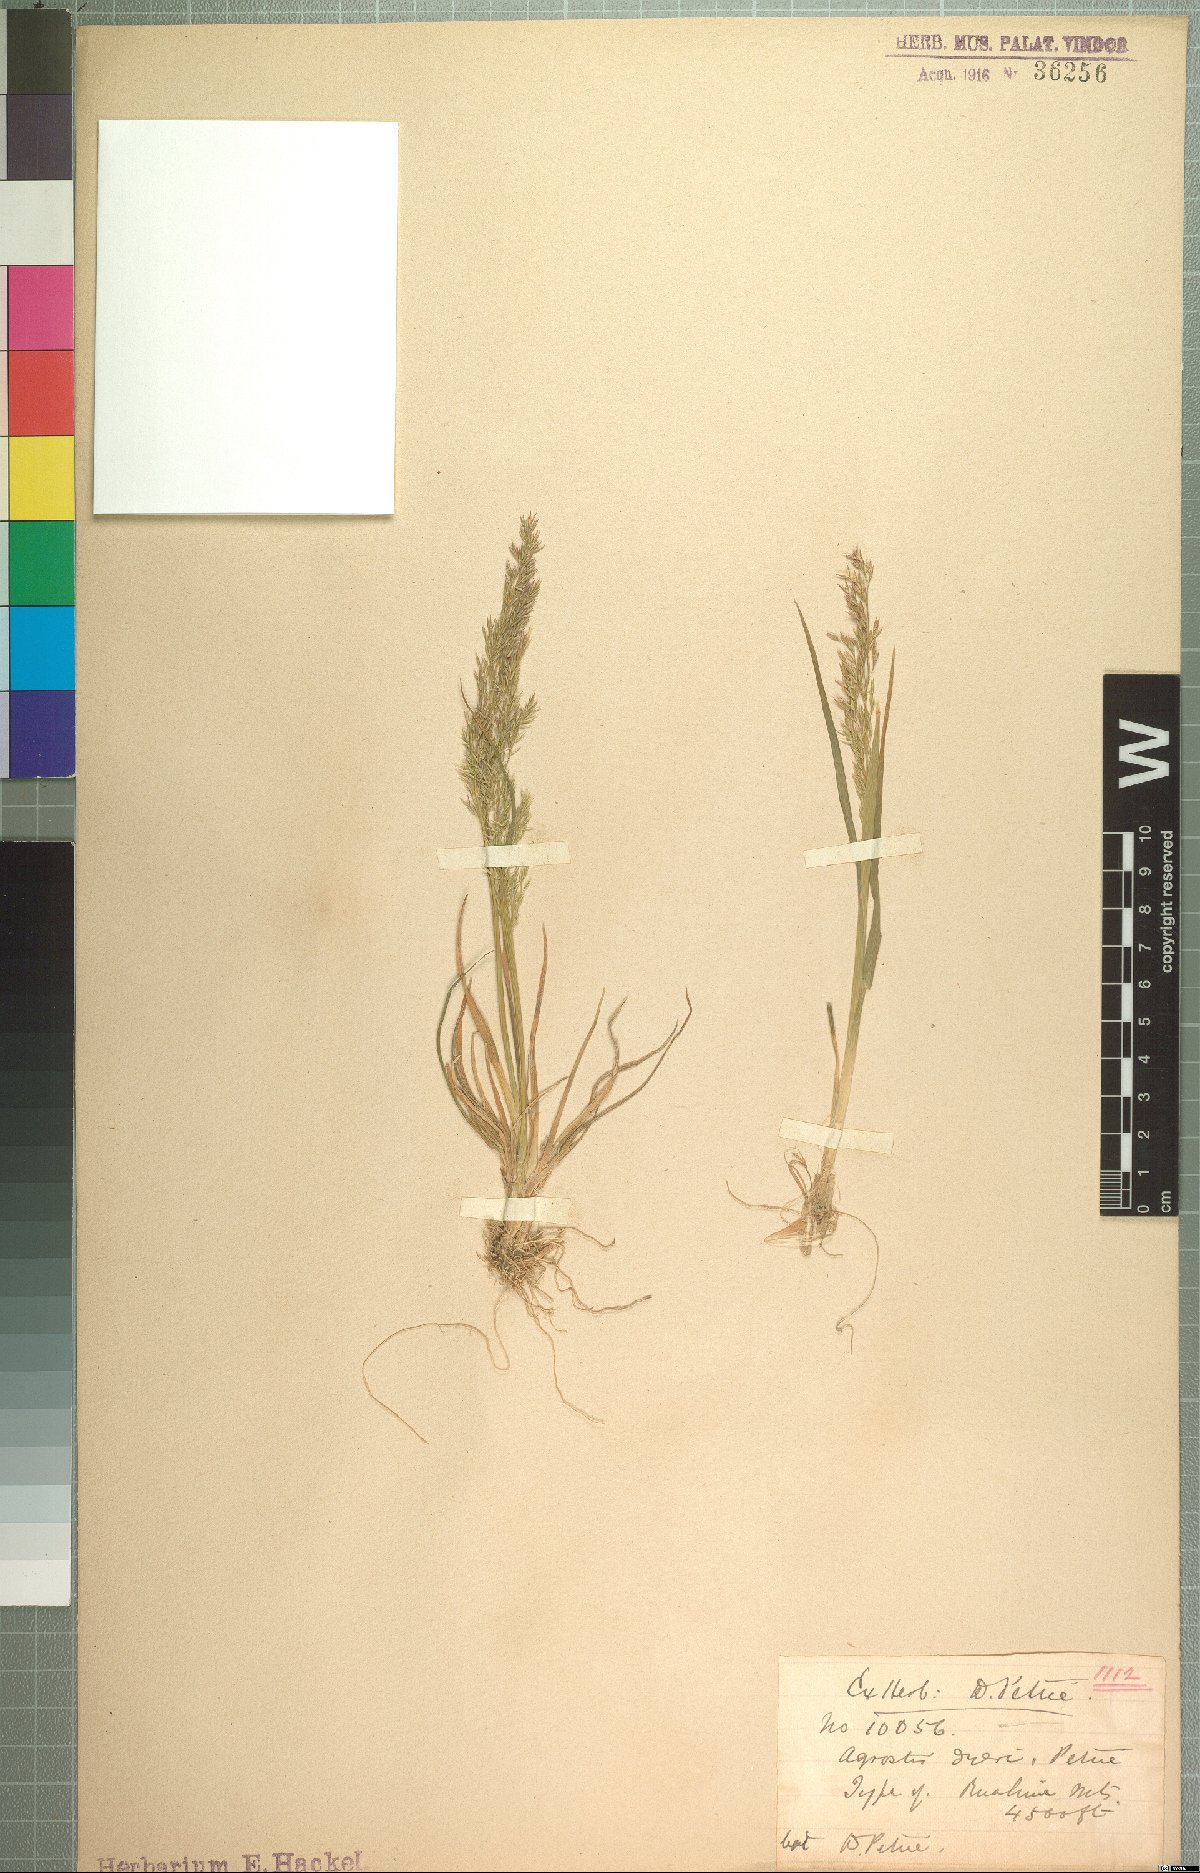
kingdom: Plantae
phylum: Tracheophyta
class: Liliopsida
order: Poales
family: Poaceae
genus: Agrostis
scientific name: Agrostis dyeri
